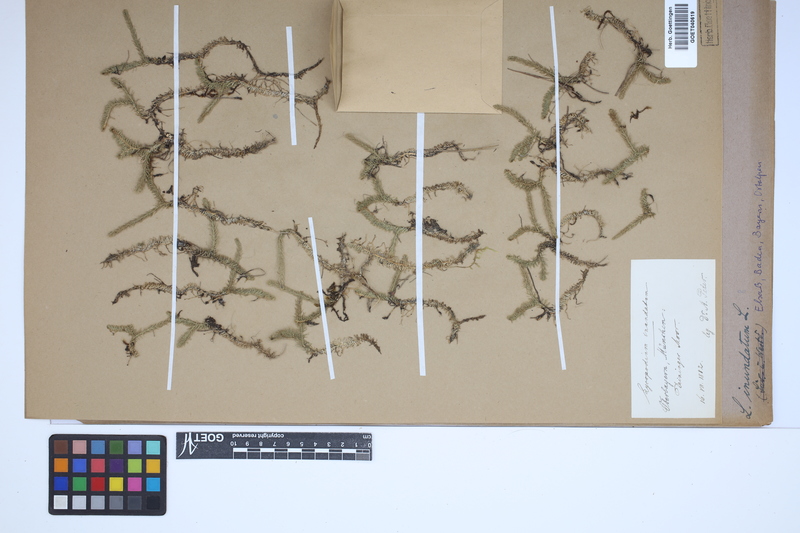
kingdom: Plantae
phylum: Tracheophyta
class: Lycopodiopsida
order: Lycopodiales
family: Lycopodiaceae
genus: Lycopodiella
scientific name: Lycopodiella inundata
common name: Marsh clubmoss
